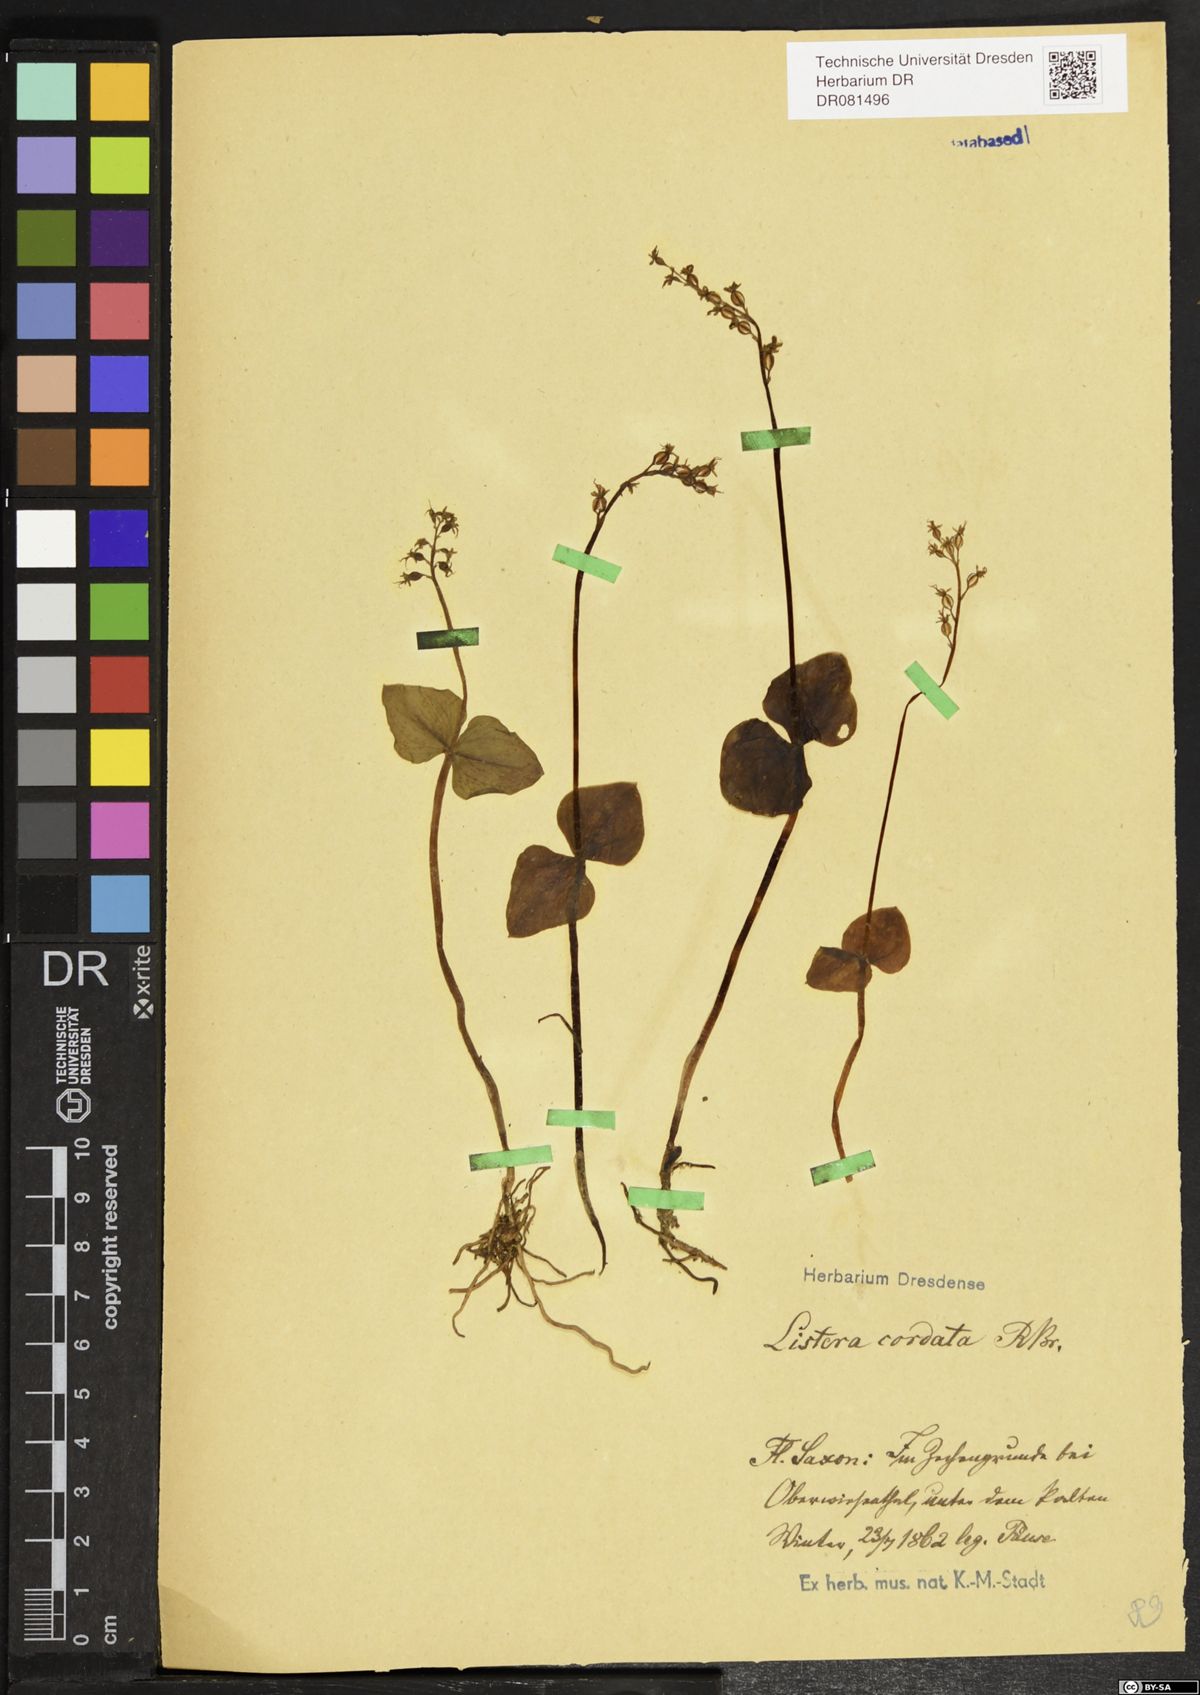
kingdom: Plantae
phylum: Tracheophyta
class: Liliopsida
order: Asparagales
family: Orchidaceae
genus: Neottia
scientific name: Neottia cordata
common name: Lesser twayblade
